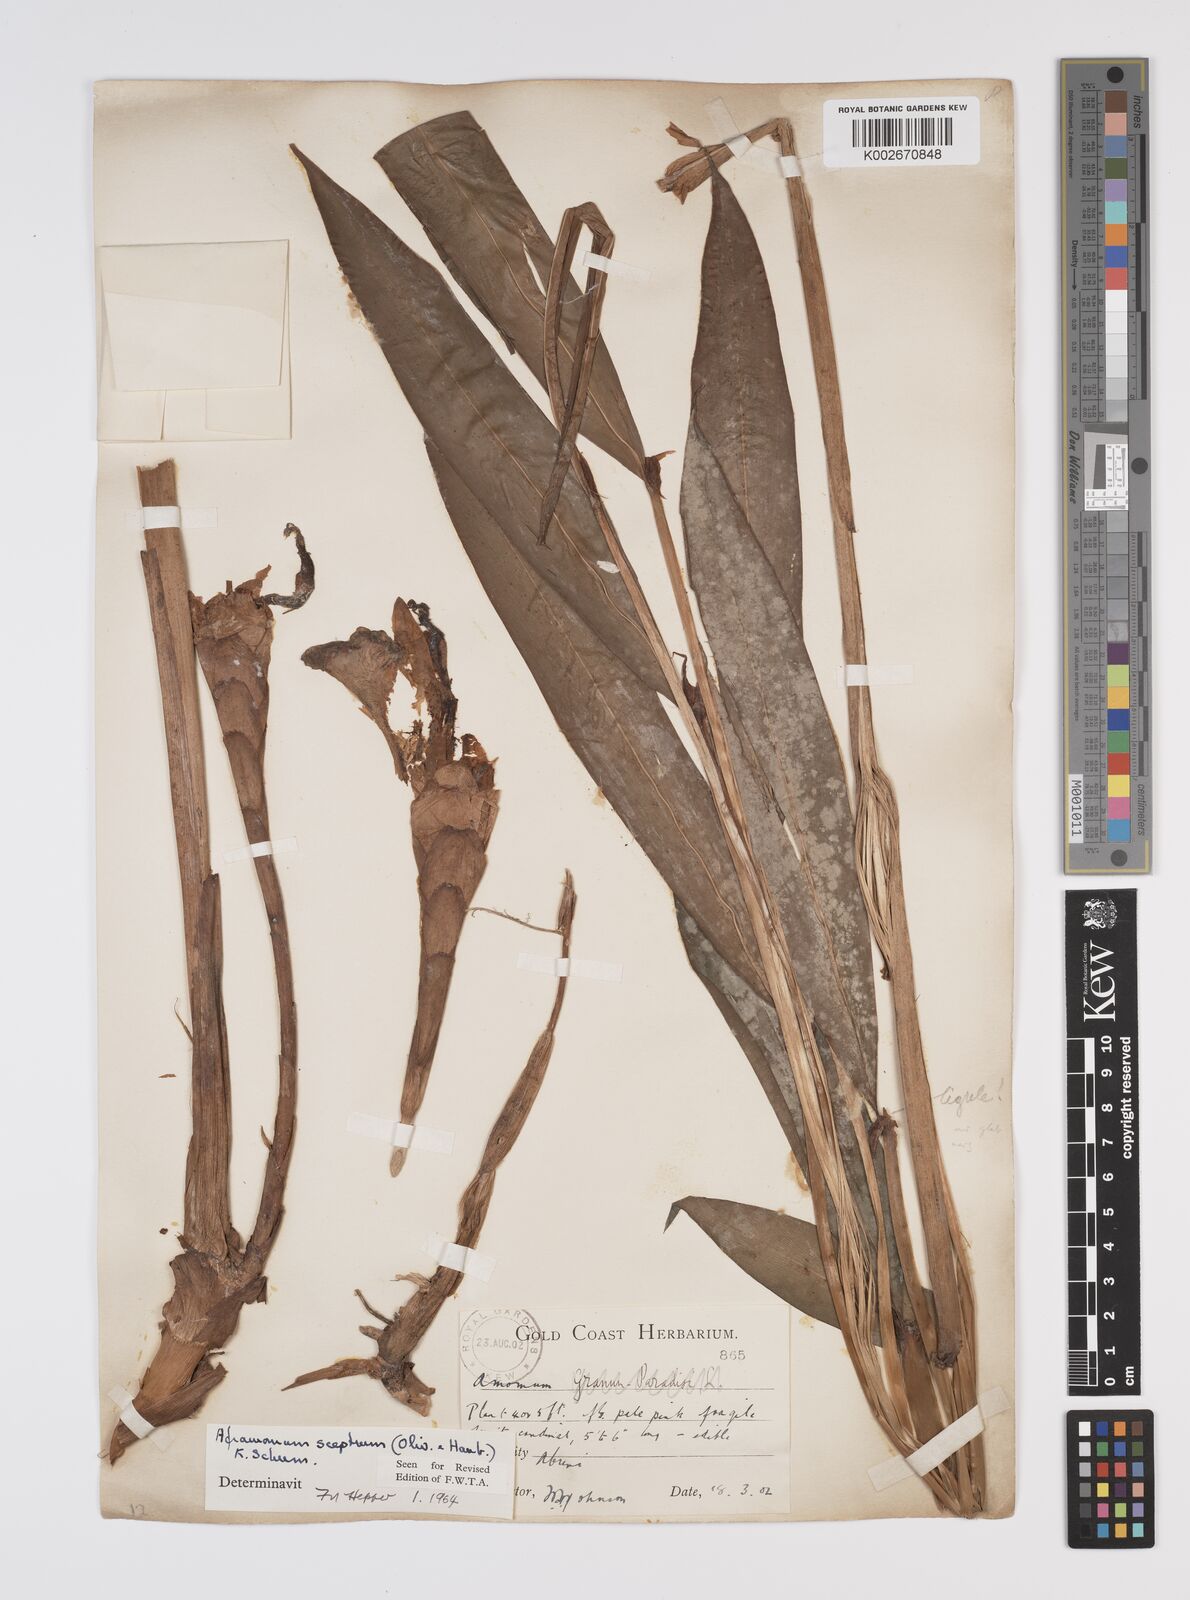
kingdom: Plantae
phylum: Tracheophyta
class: Liliopsida
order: Zingiberales
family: Zingiberaceae
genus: Aframomum
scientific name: Aframomum cereum
